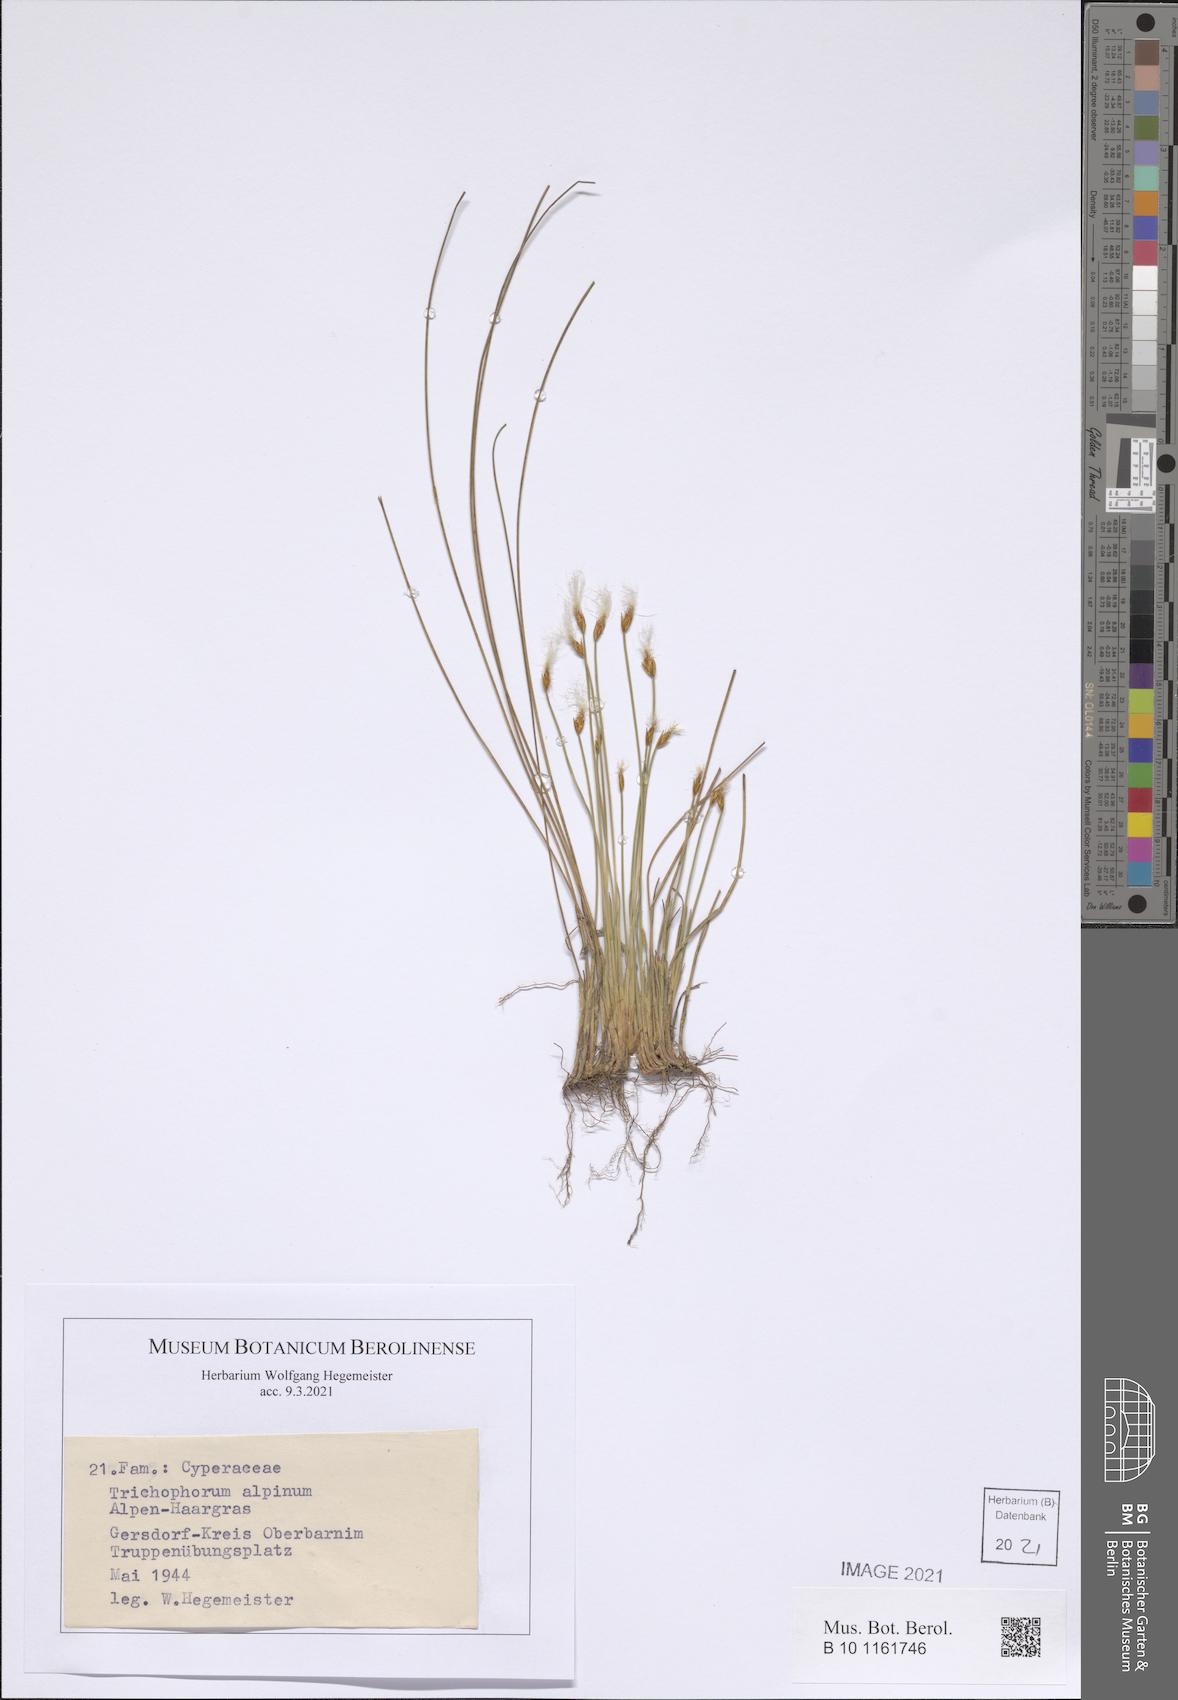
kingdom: Plantae
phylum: Tracheophyta
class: Liliopsida
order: Poales
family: Cyperaceae
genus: Trichophorum
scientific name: Trichophorum alpinum
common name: Alpine bulrush
